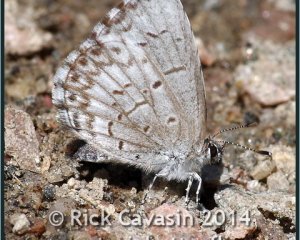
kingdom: Animalia
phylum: Arthropoda
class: Insecta
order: Lepidoptera
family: Lycaenidae
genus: Cyaniris
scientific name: Cyaniris neglecta
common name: Summer Azure
